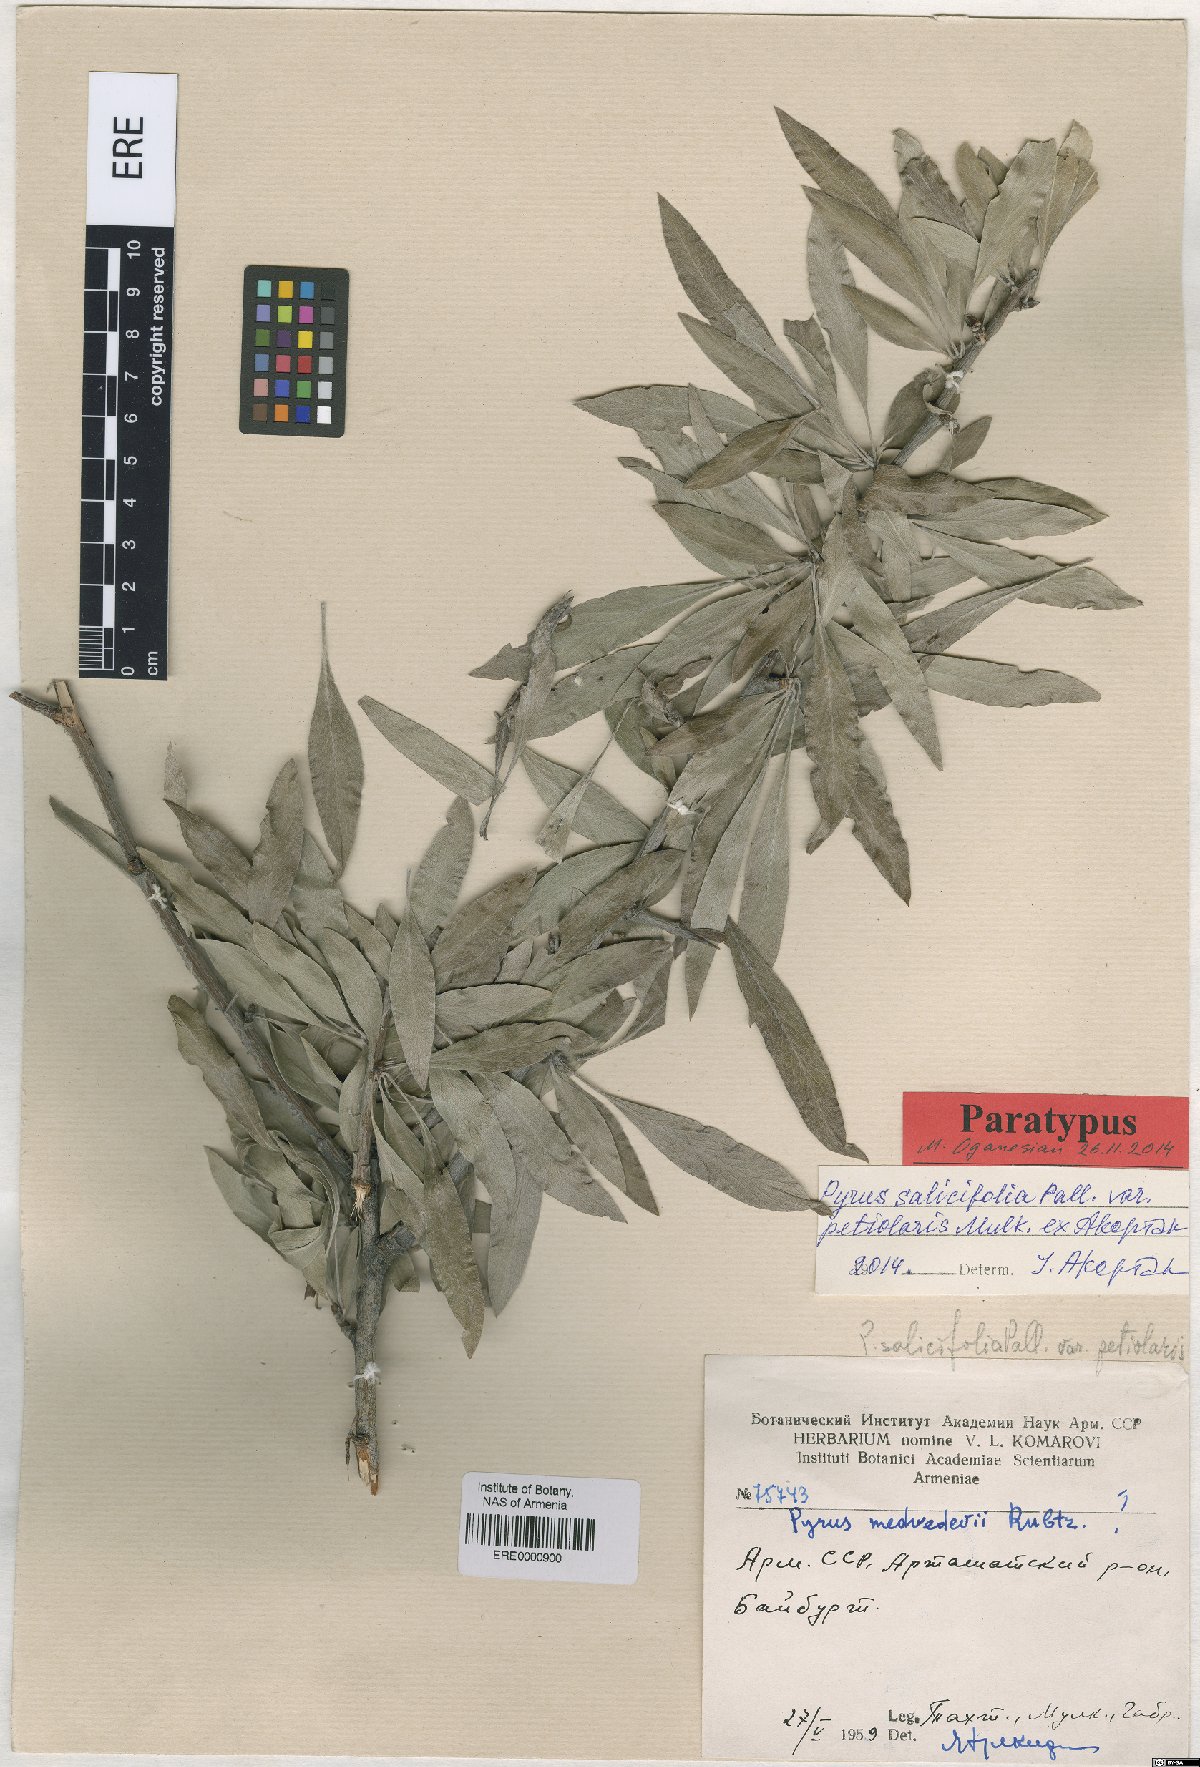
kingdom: Plantae
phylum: Tracheophyta
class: Magnoliopsida
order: Rosales
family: Rosaceae
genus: Pyrus
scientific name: Pyrus salicifolia
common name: Willow-leaved pear
